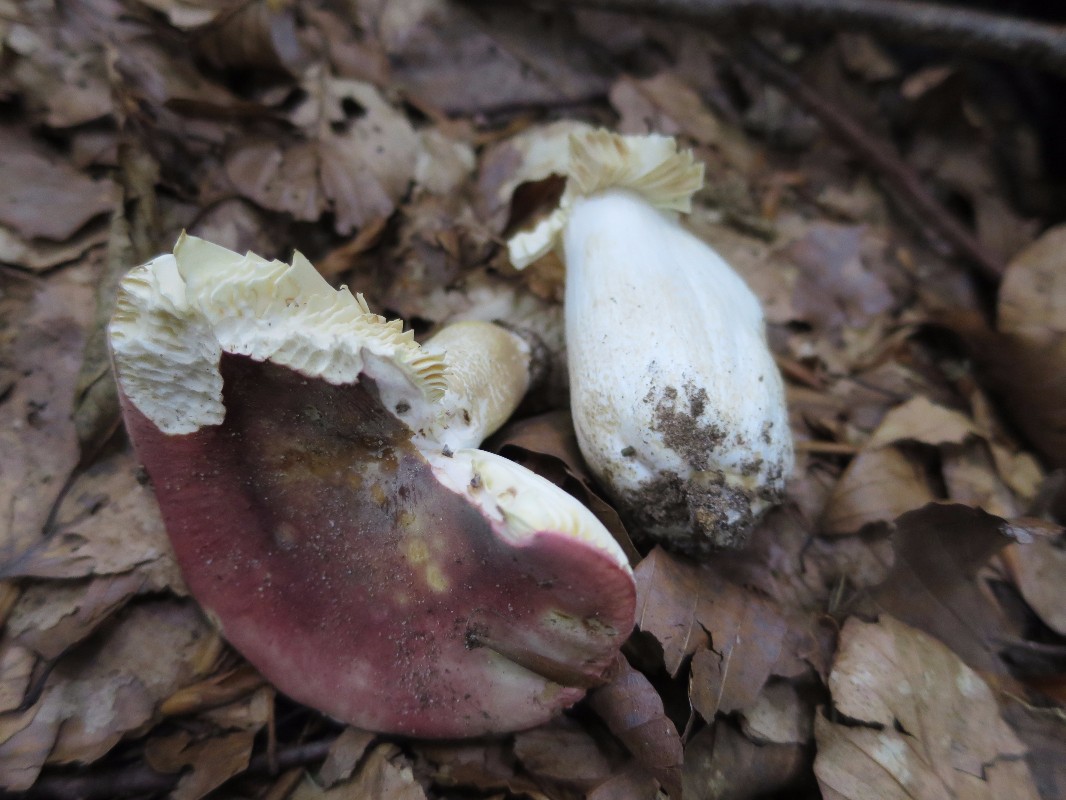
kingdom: Fungi
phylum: Basidiomycota
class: Agaricomycetes
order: Russulales
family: Russulaceae
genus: Russula
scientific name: Russula faginea
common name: bøge-skørhat
